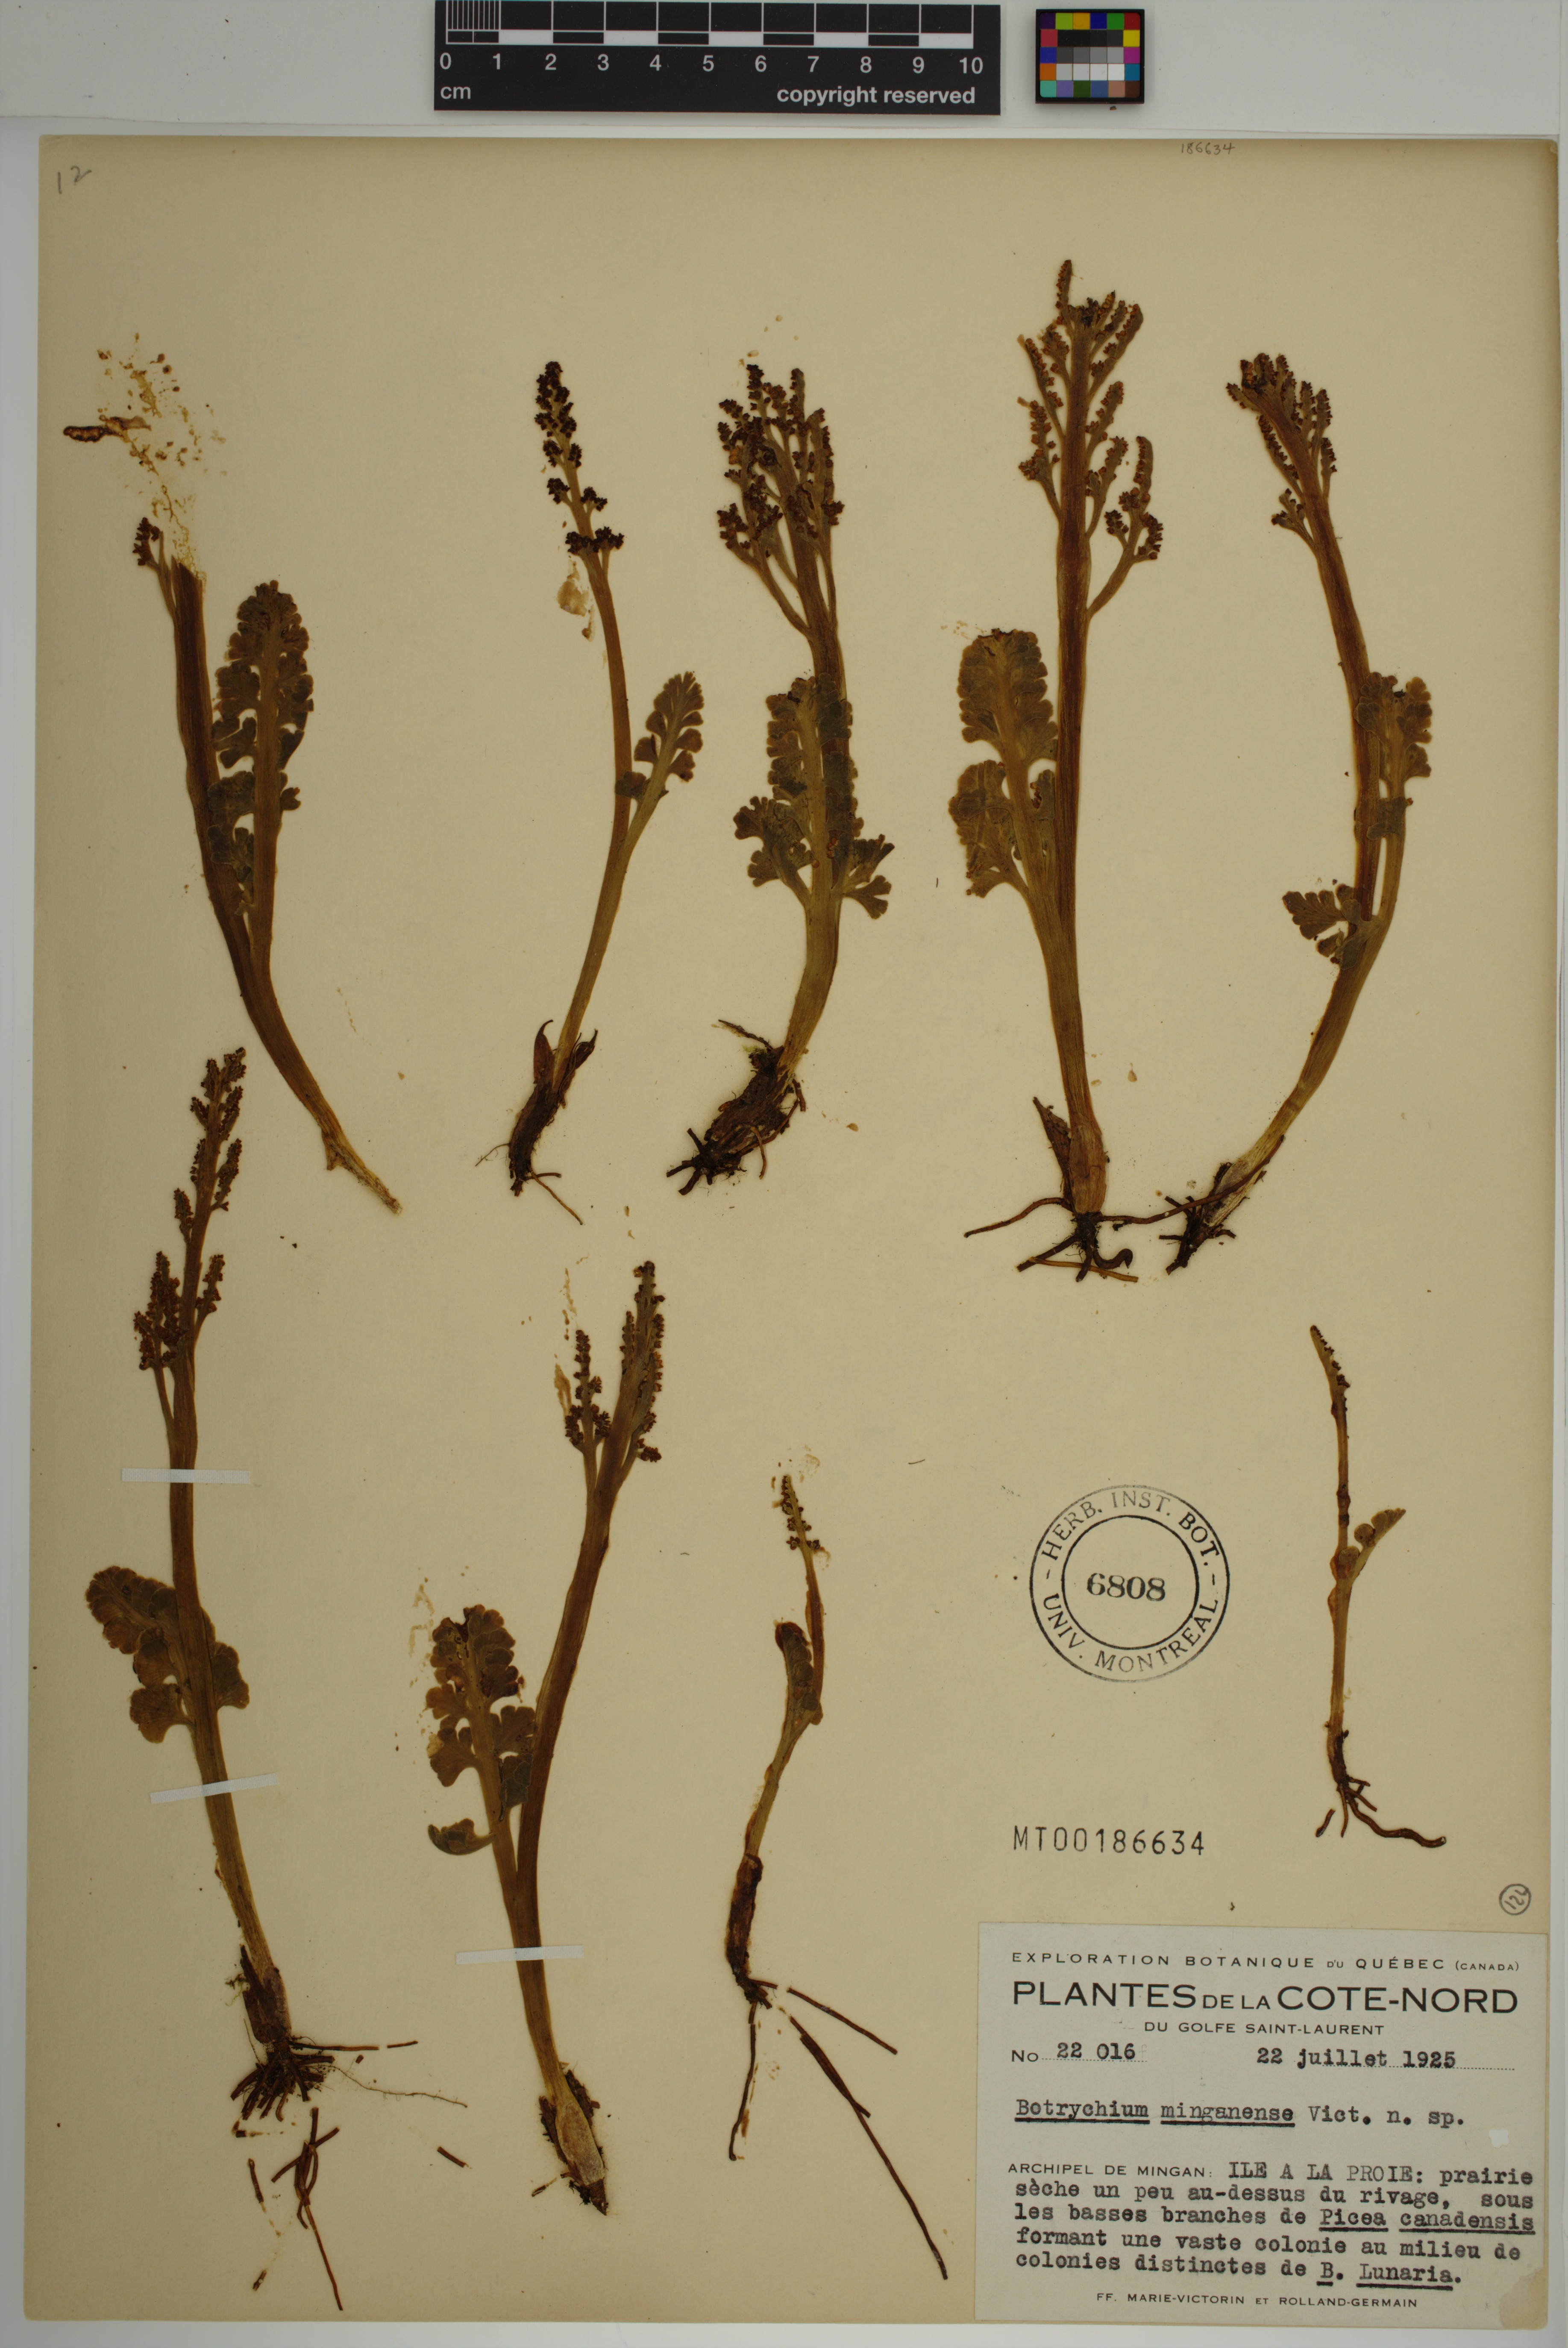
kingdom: Plantae
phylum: Tracheophyta
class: Polypodiopsida
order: Ophioglossales
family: Ophioglossaceae
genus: Botrychium
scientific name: Botrychium minganense
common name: Mingan grapefern
